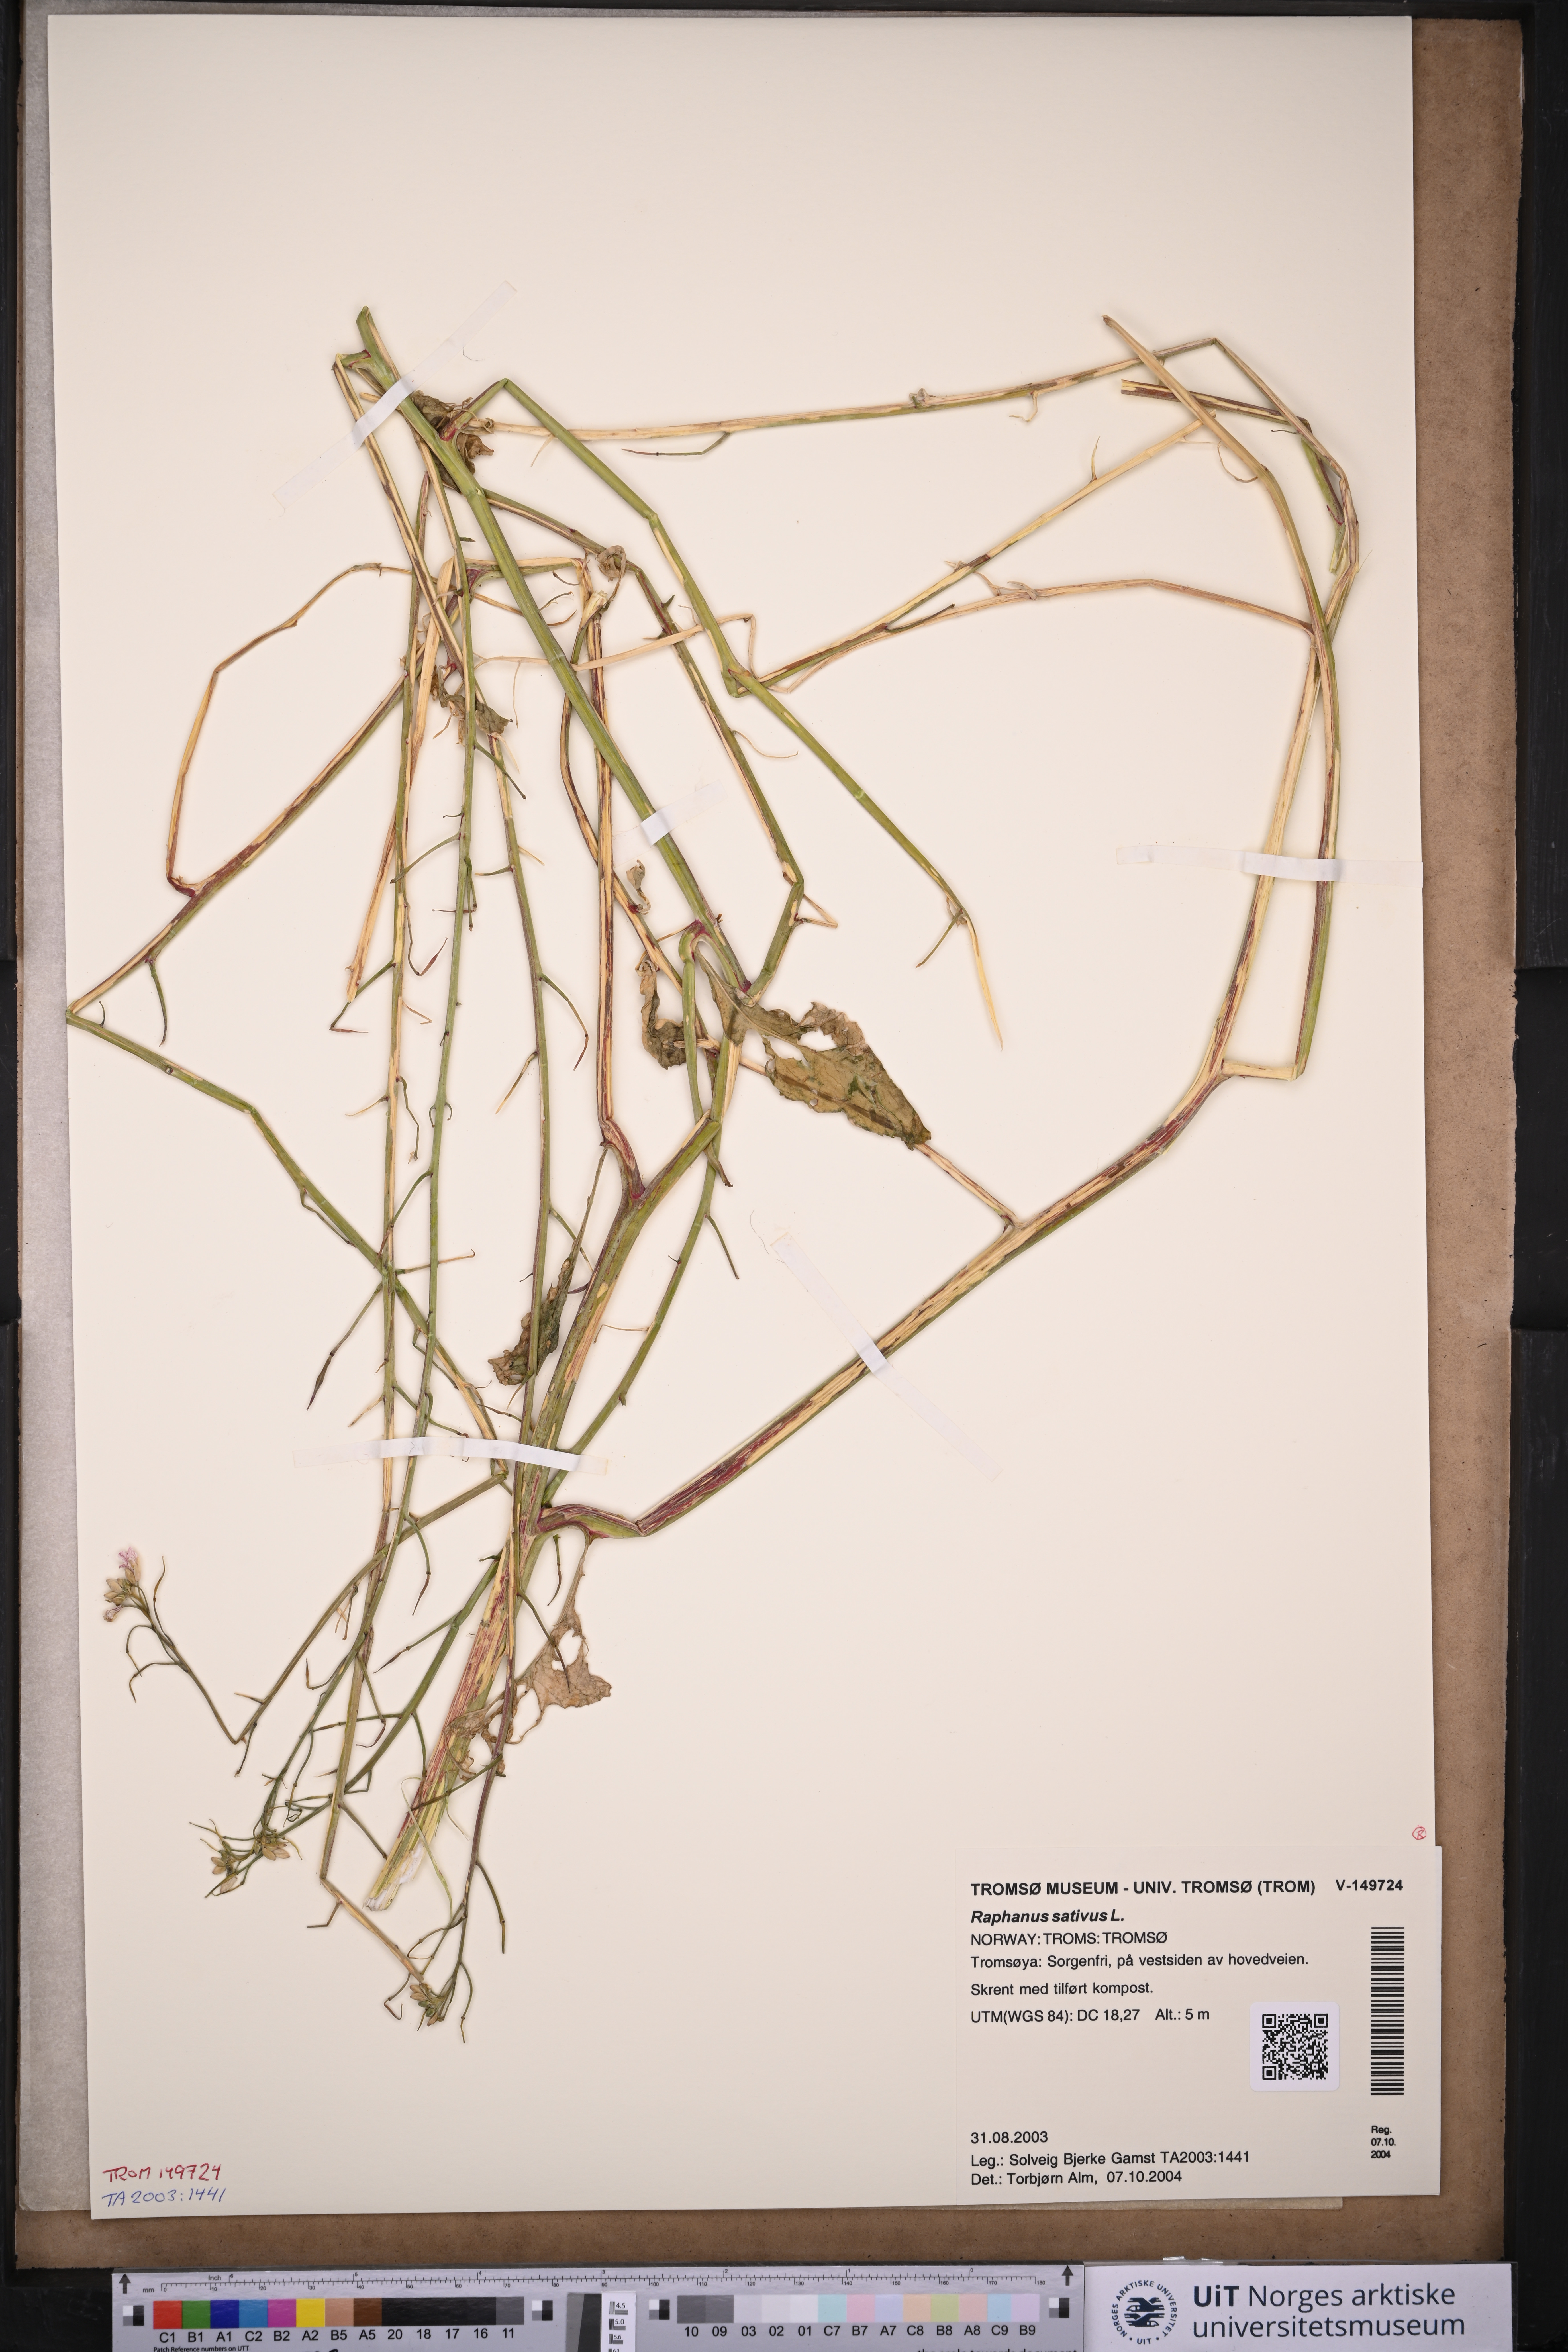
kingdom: Plantae
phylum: Tracheophyta
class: Magnoliopsida
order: Brassicales
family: Brassicaceae
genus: Raphanus
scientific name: Raphanus sativus
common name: Cultivated radish
